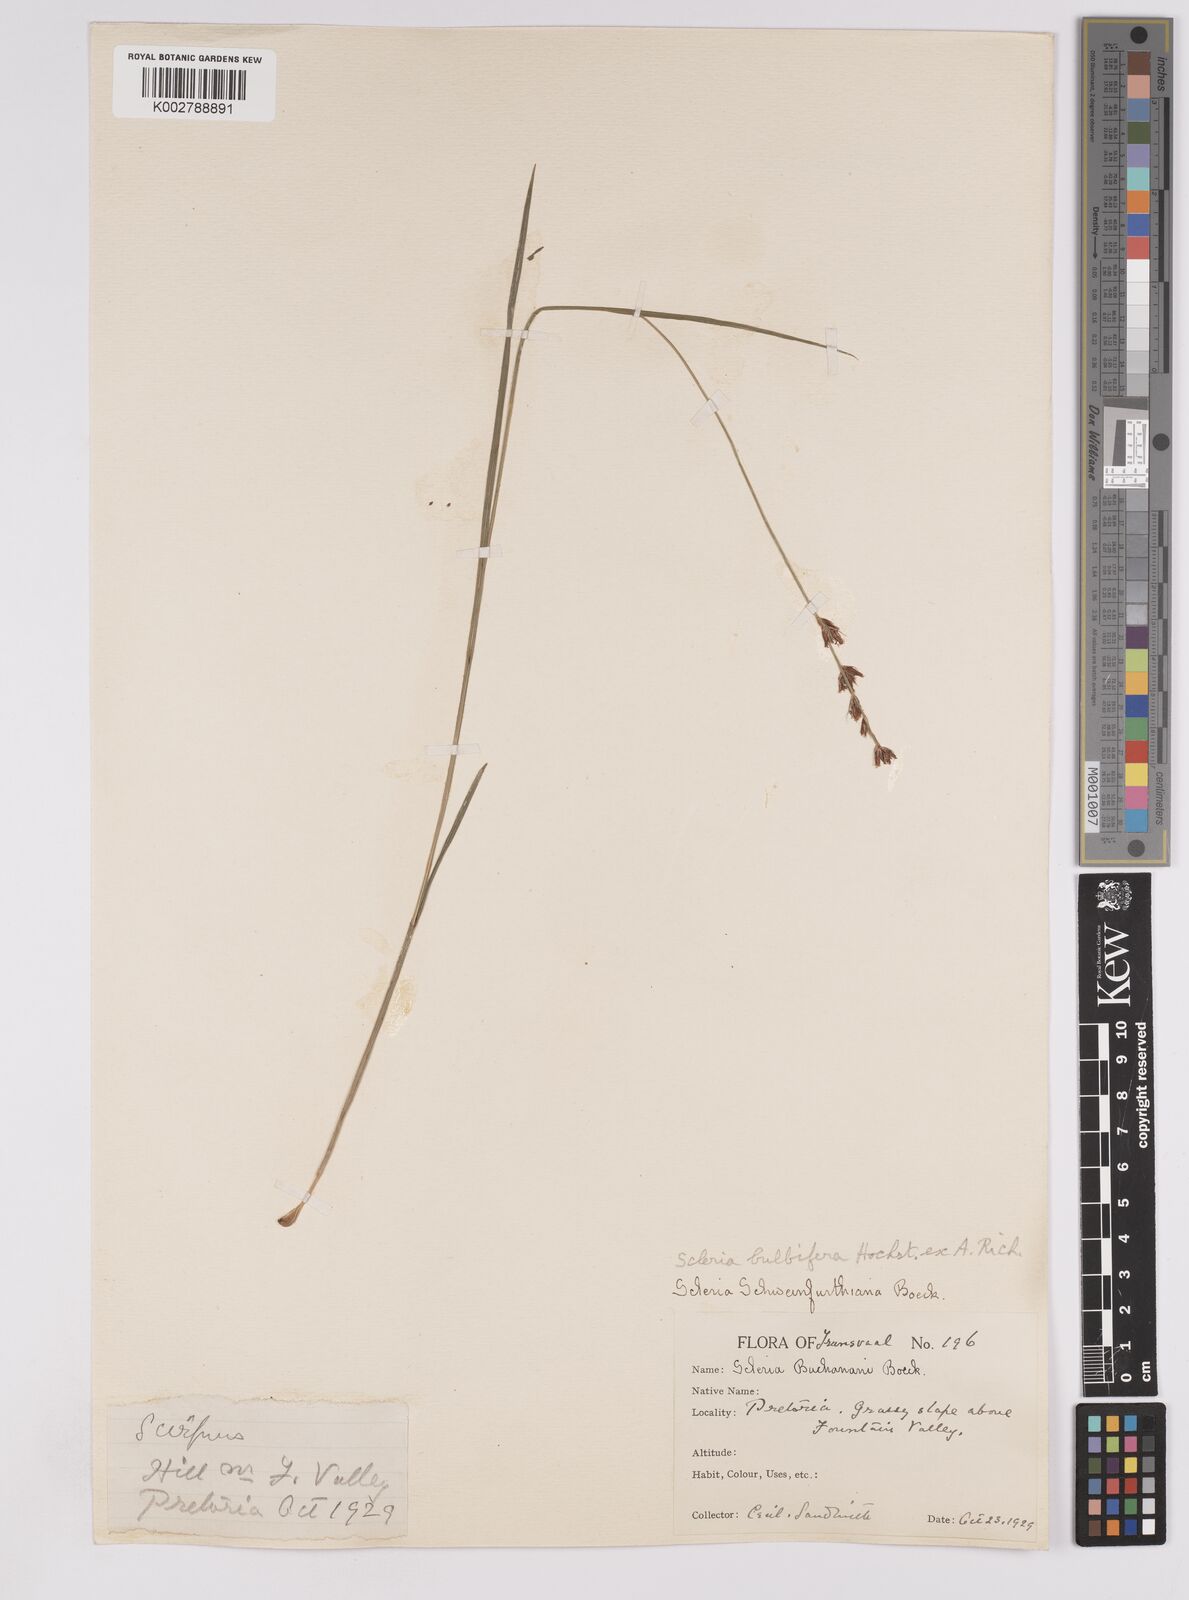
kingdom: Plantae
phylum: Tracheophyta
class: Liliopsida
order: Poales
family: Cyperaceae
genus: Scleria
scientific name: Scleria bulbifera
